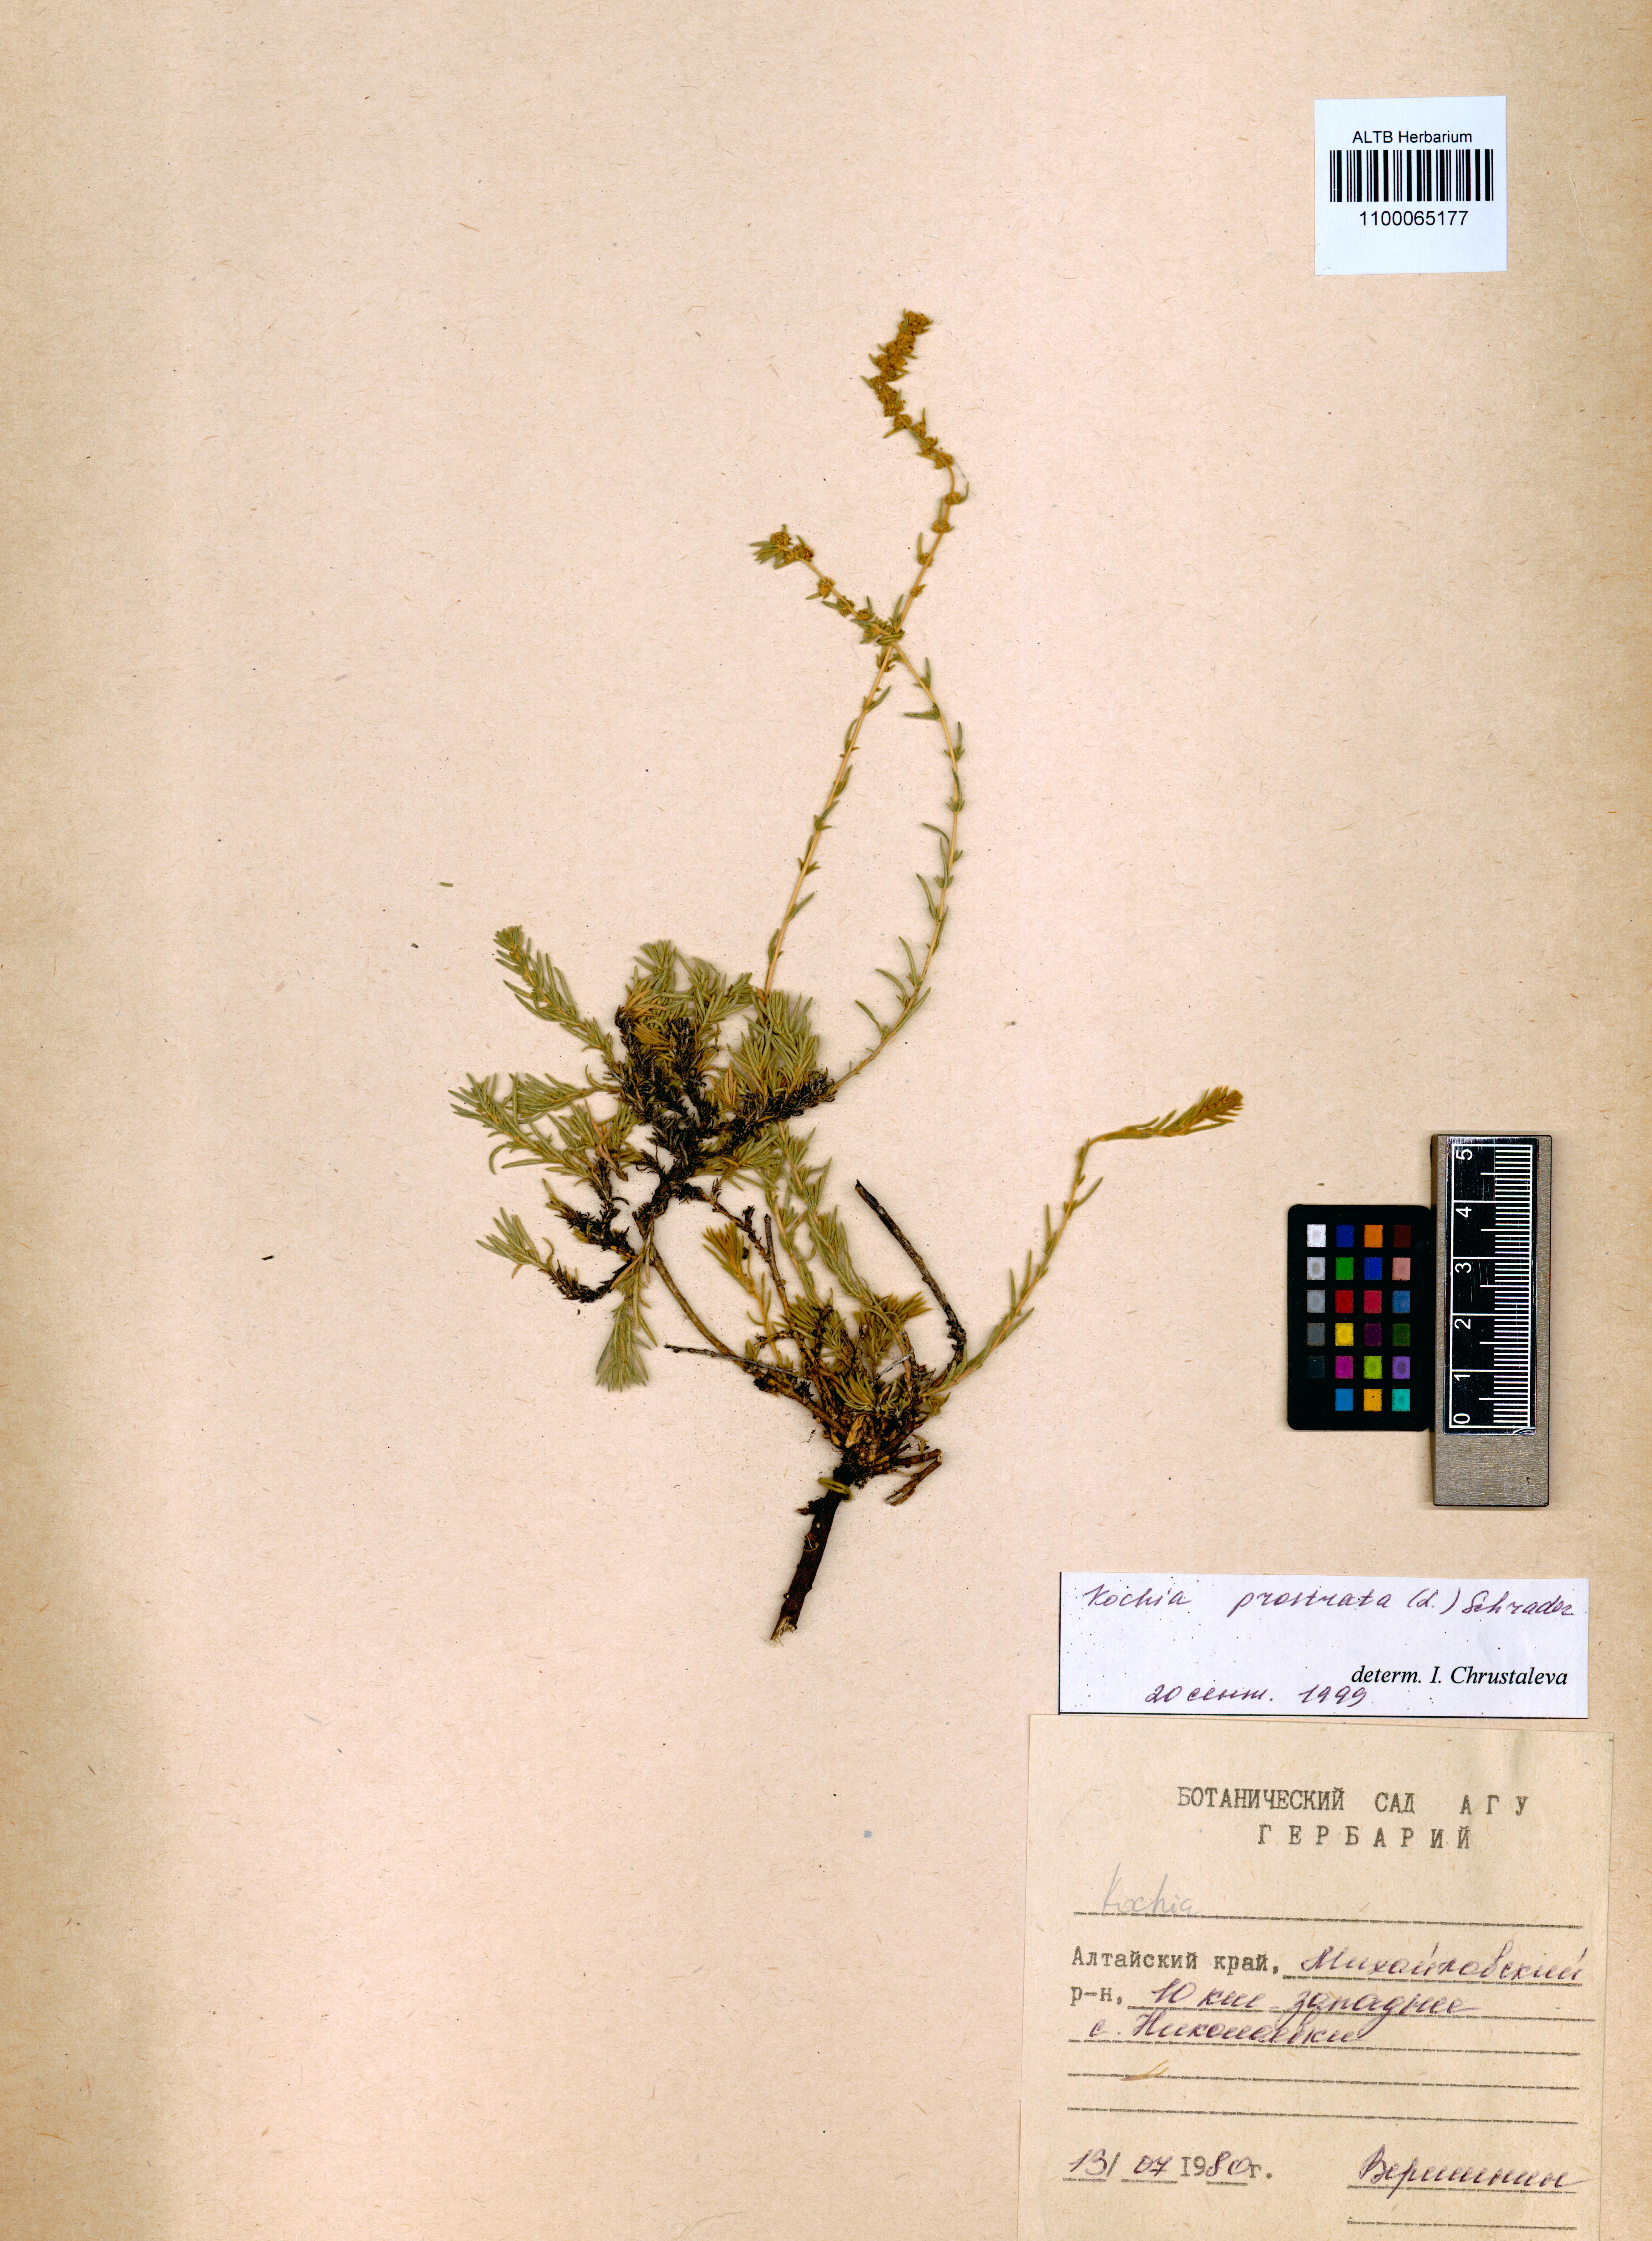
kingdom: Plantae
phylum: Tracheophyta
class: Magnoliopsida
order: Caryophyllales
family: Amaranthaceae
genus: Bassia
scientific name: Bassia prostrata
